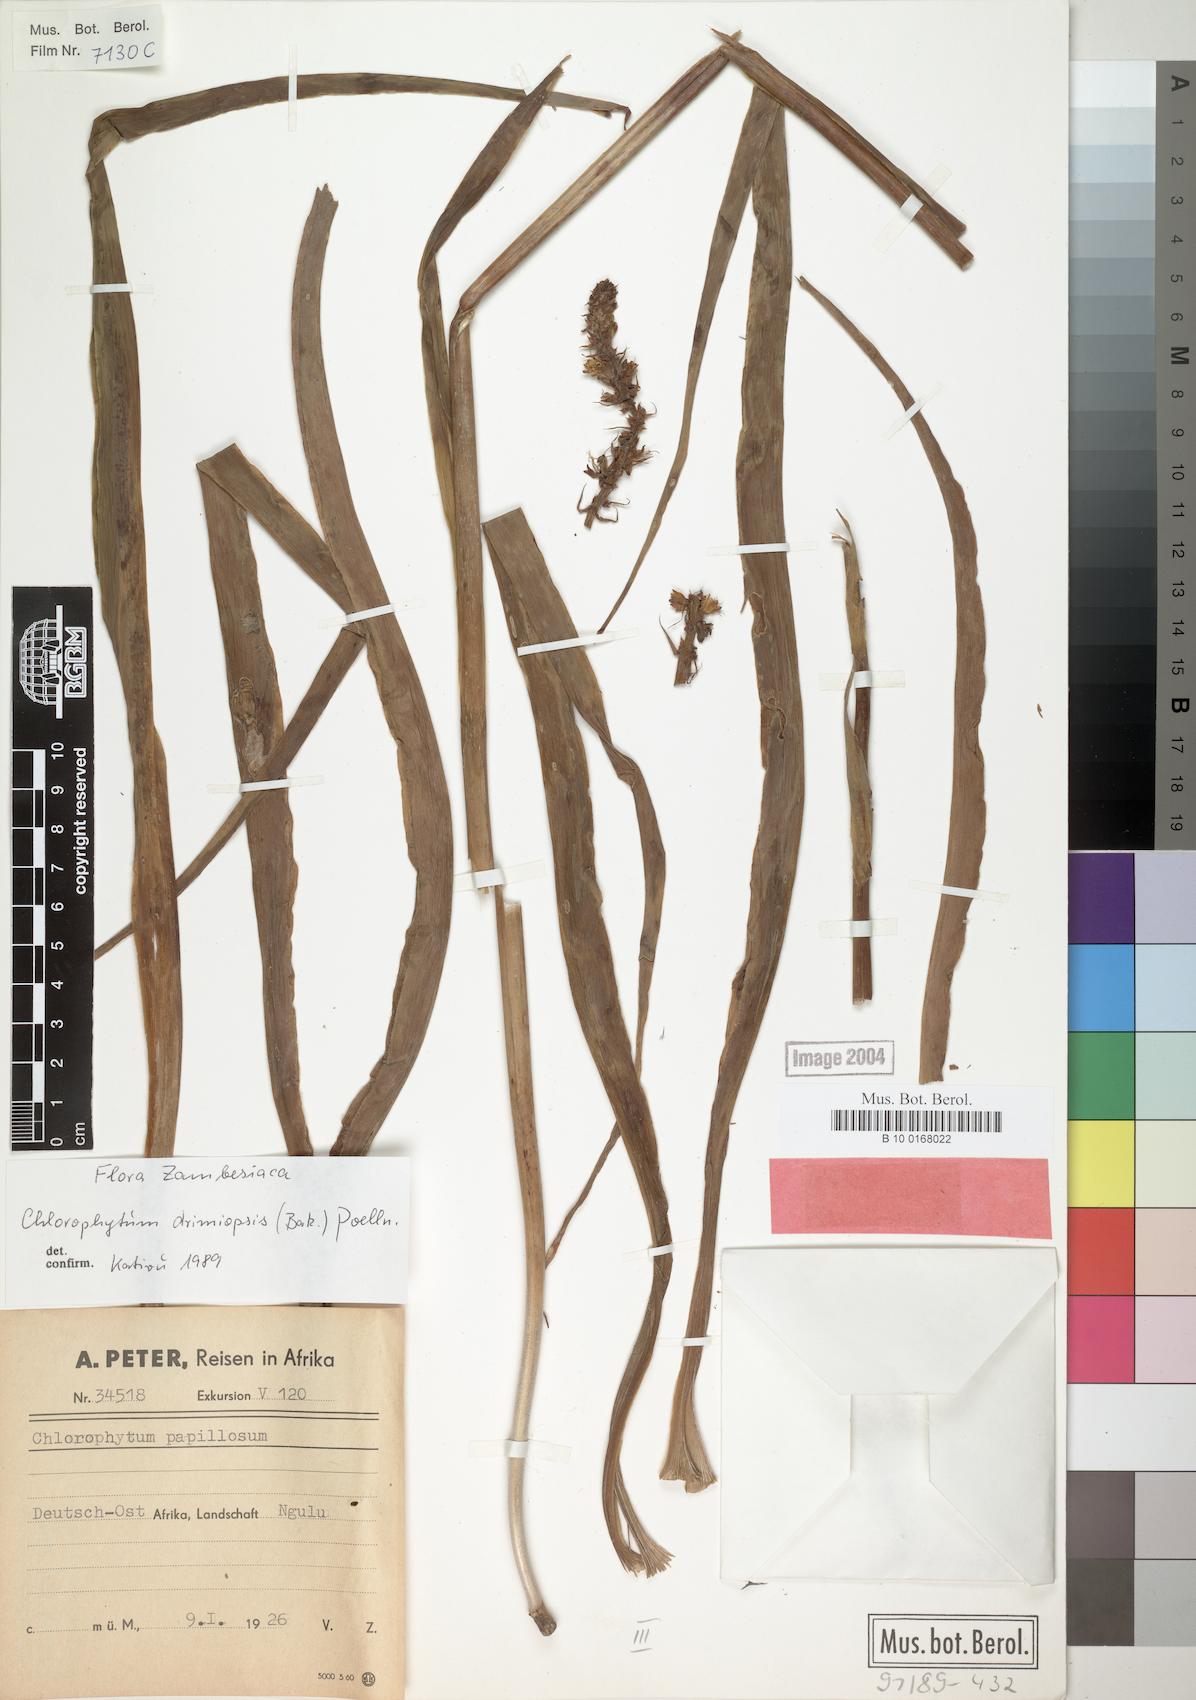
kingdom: Plantae
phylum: Tracheophyta
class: Liliopsida
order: Asparagales
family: Asparagaceae
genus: Chlorophytum
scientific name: Chlorophytum longifolium
